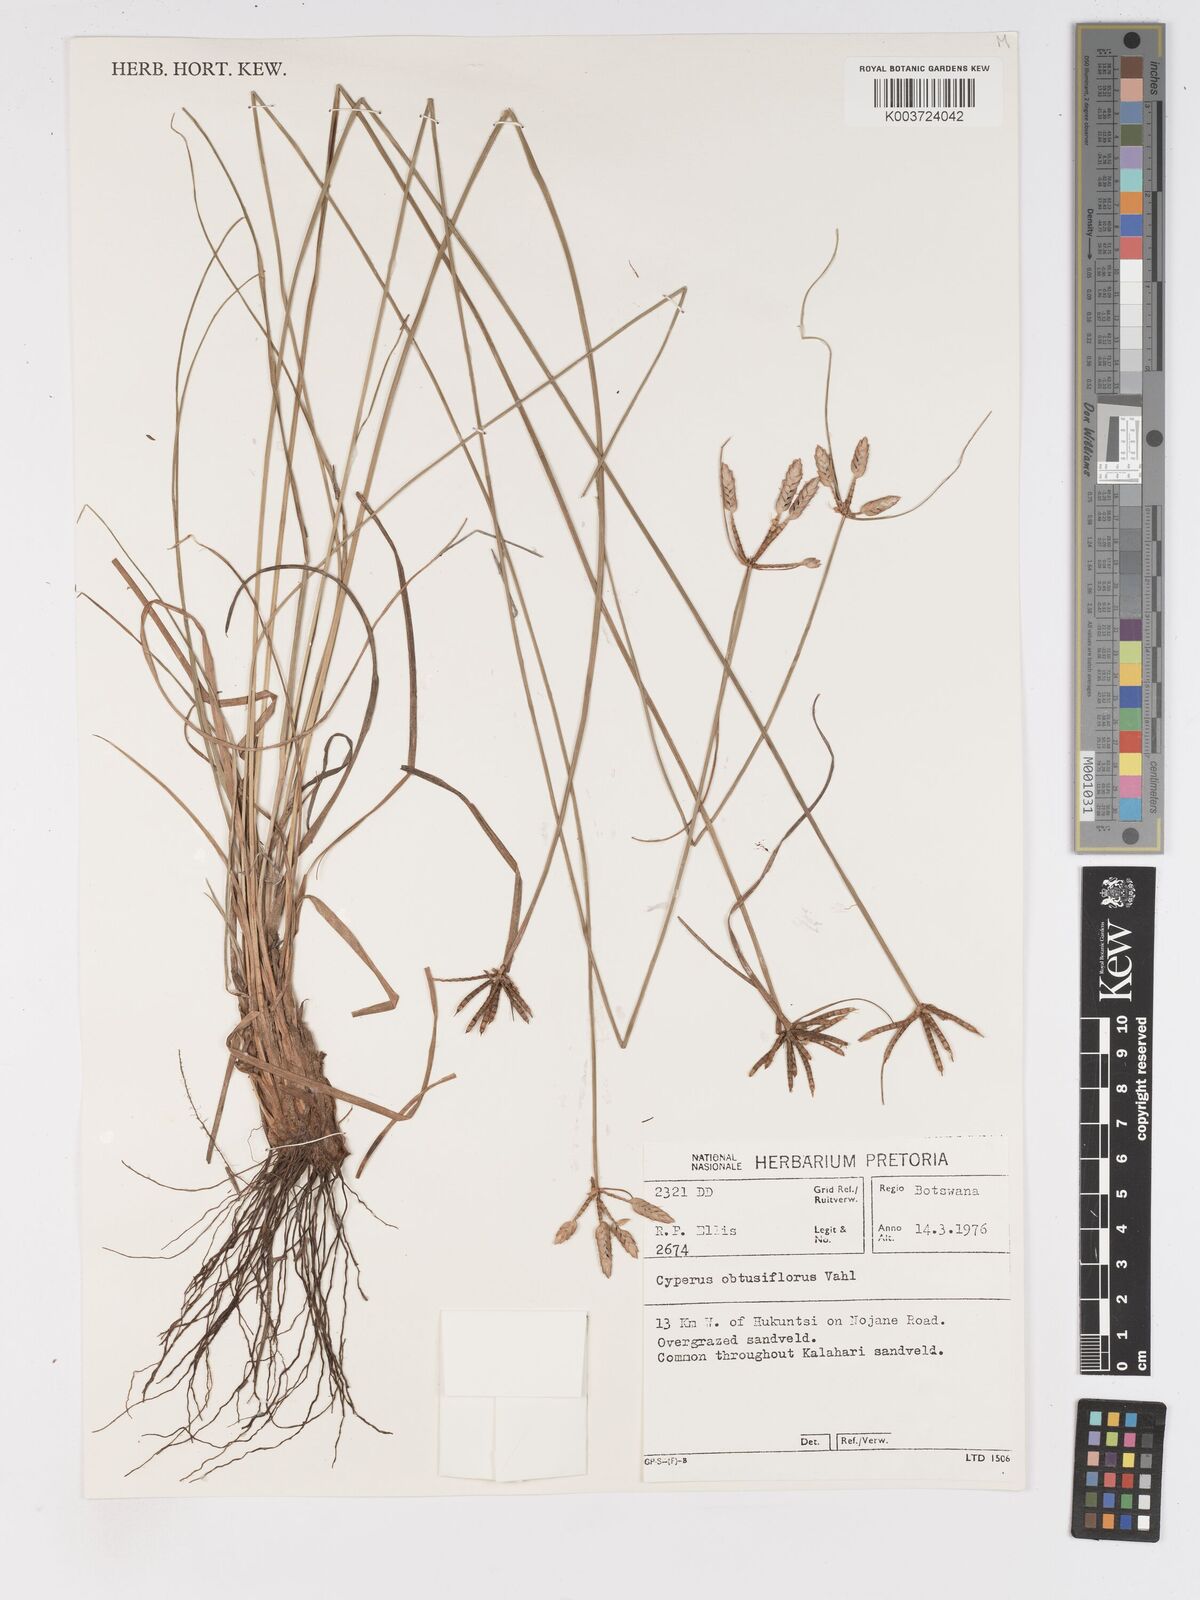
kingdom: Plantae
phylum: Tracheophyta
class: Liliopsida
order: Poales
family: Cyperaceae
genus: Cyperus
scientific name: Cyperus niveus
